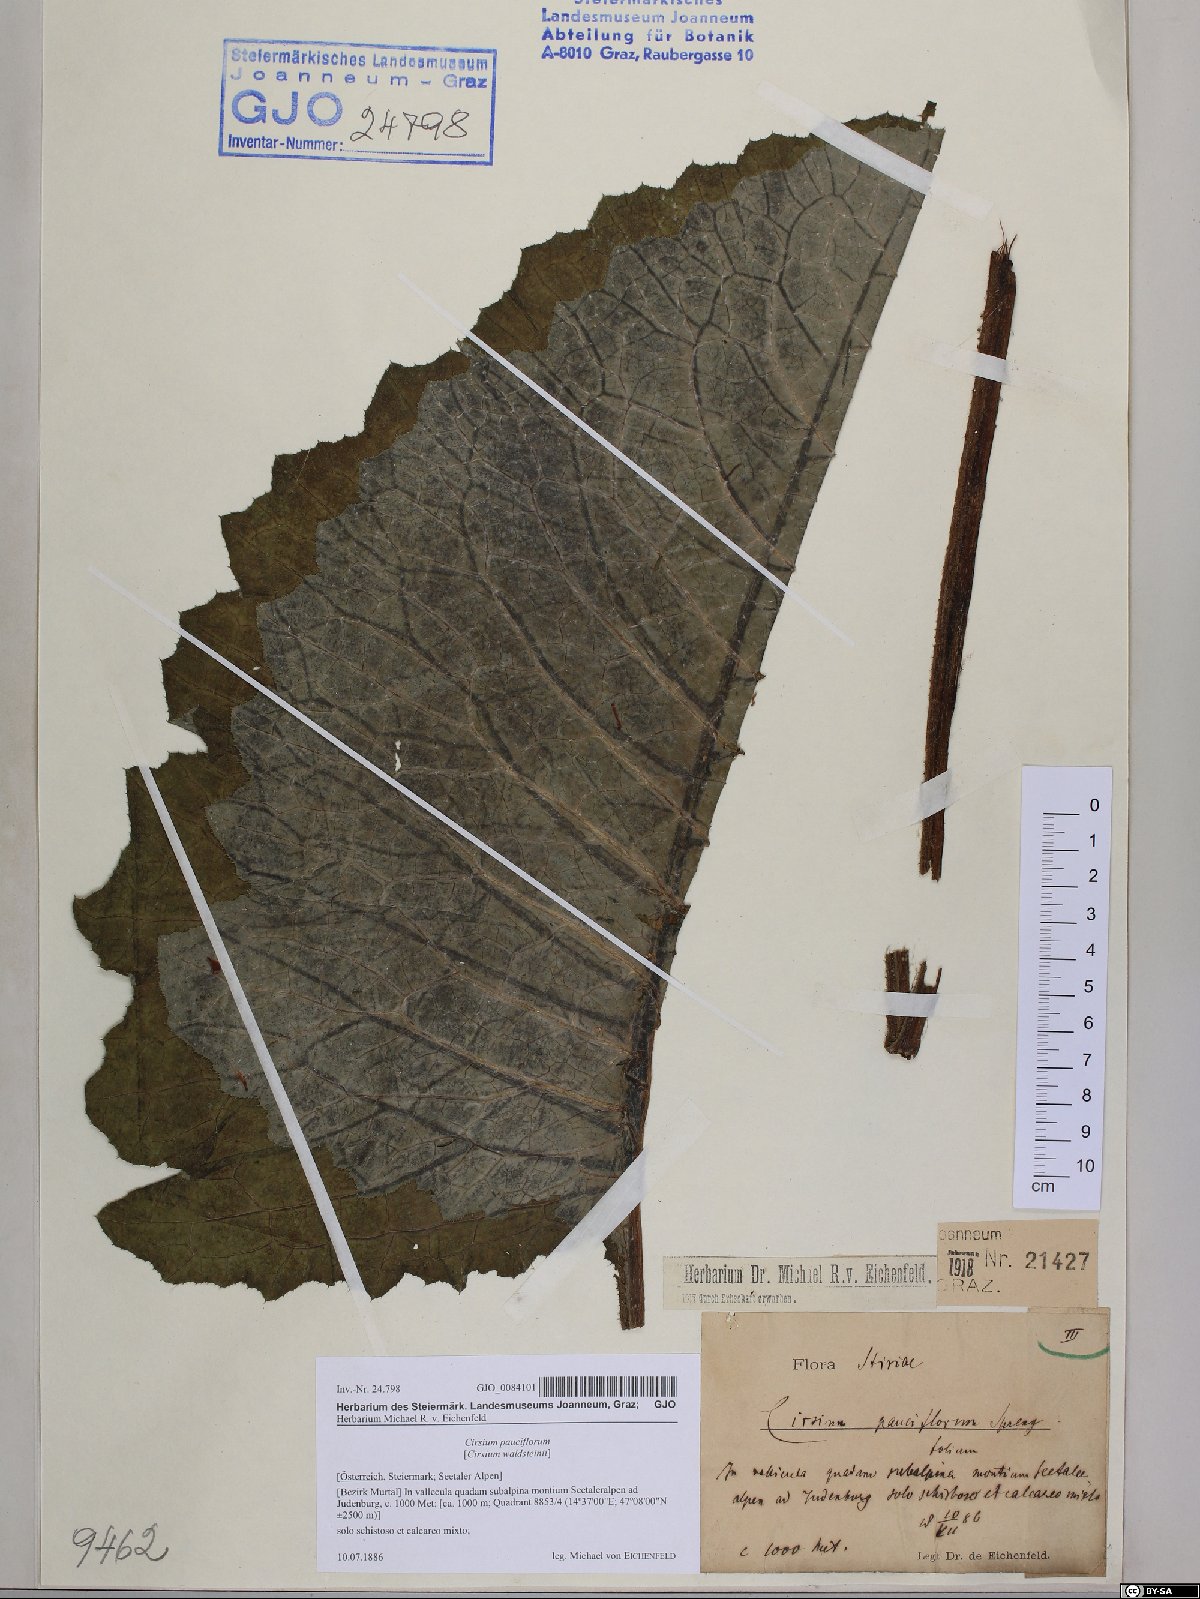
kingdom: Plantae
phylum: Tracheophyta
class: Magnoliopsida
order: Asterales
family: Asteraceae
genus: Cirsium
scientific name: Cirsium greimleri
